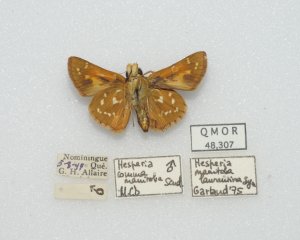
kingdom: Animalia
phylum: Arthropoda
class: Insecta
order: Lepidoptera
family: Hesperiidae
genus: Hesperia
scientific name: Hesperia comma
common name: Common Branded Skipper
